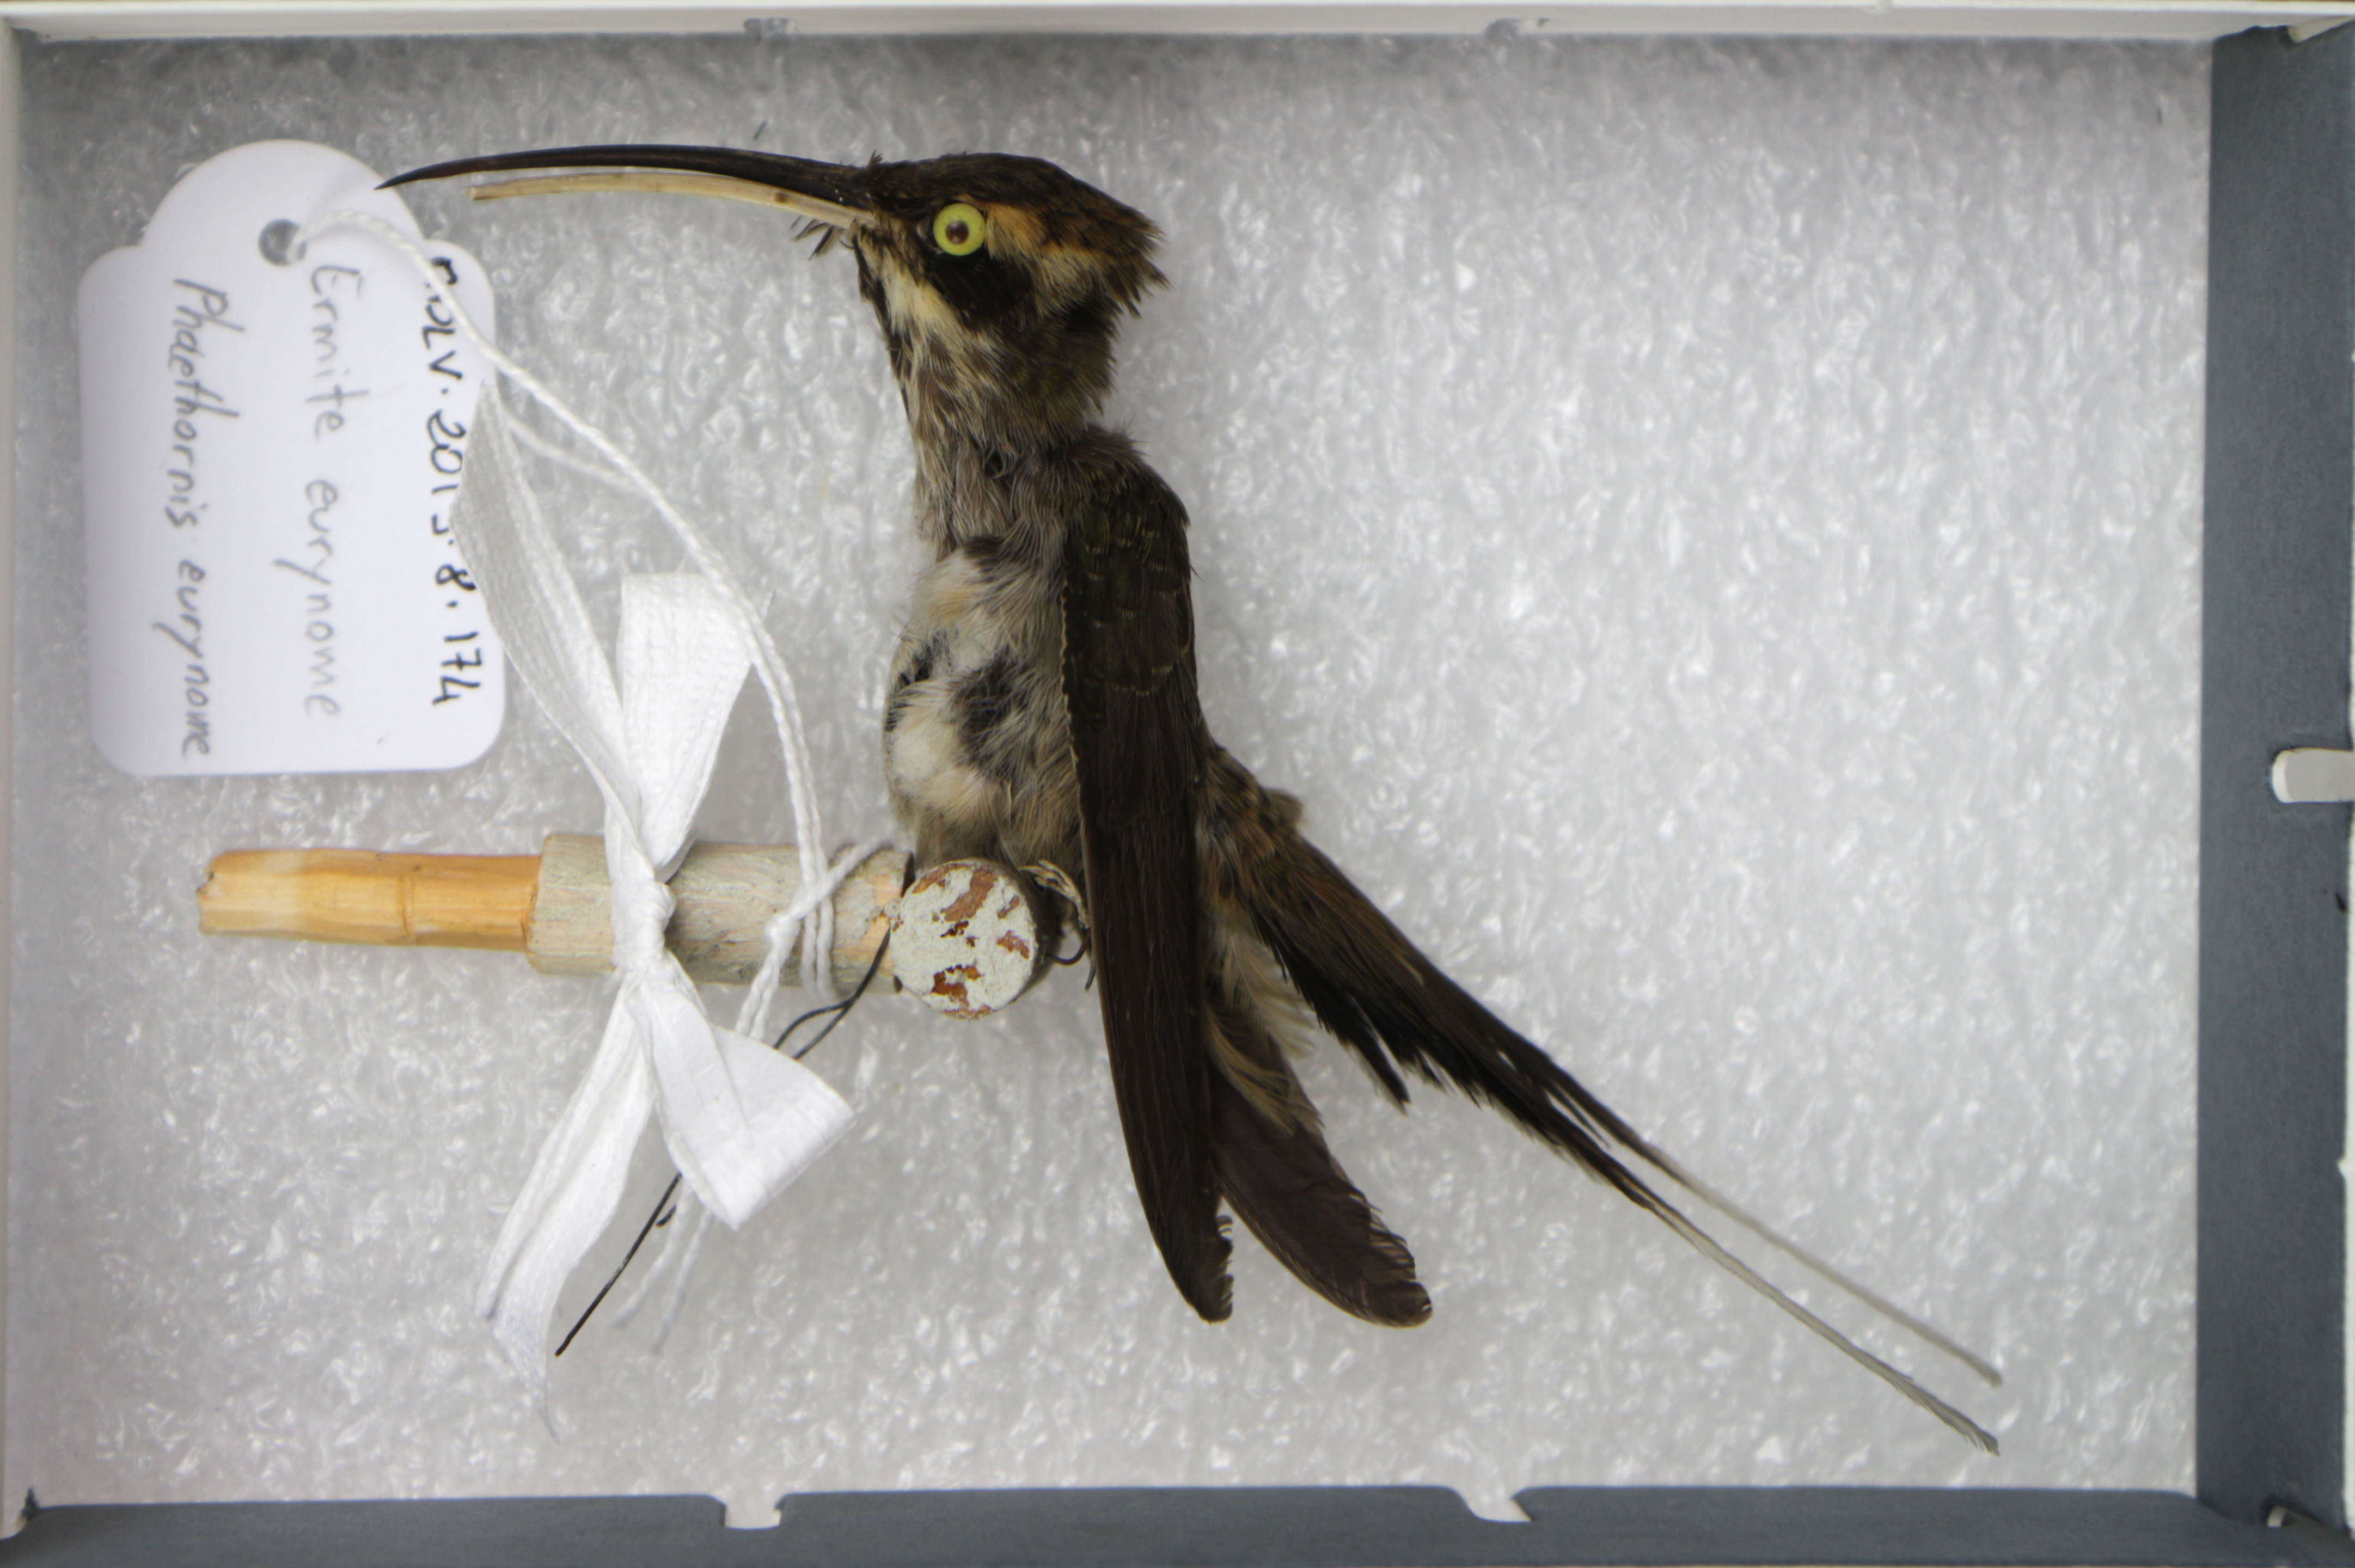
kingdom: Animalia
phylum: Chordata
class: Aves
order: Apodiformes
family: Trochilidae
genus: Phaethornis
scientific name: Phaethornis eurynome
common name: Scale-throated hermit
